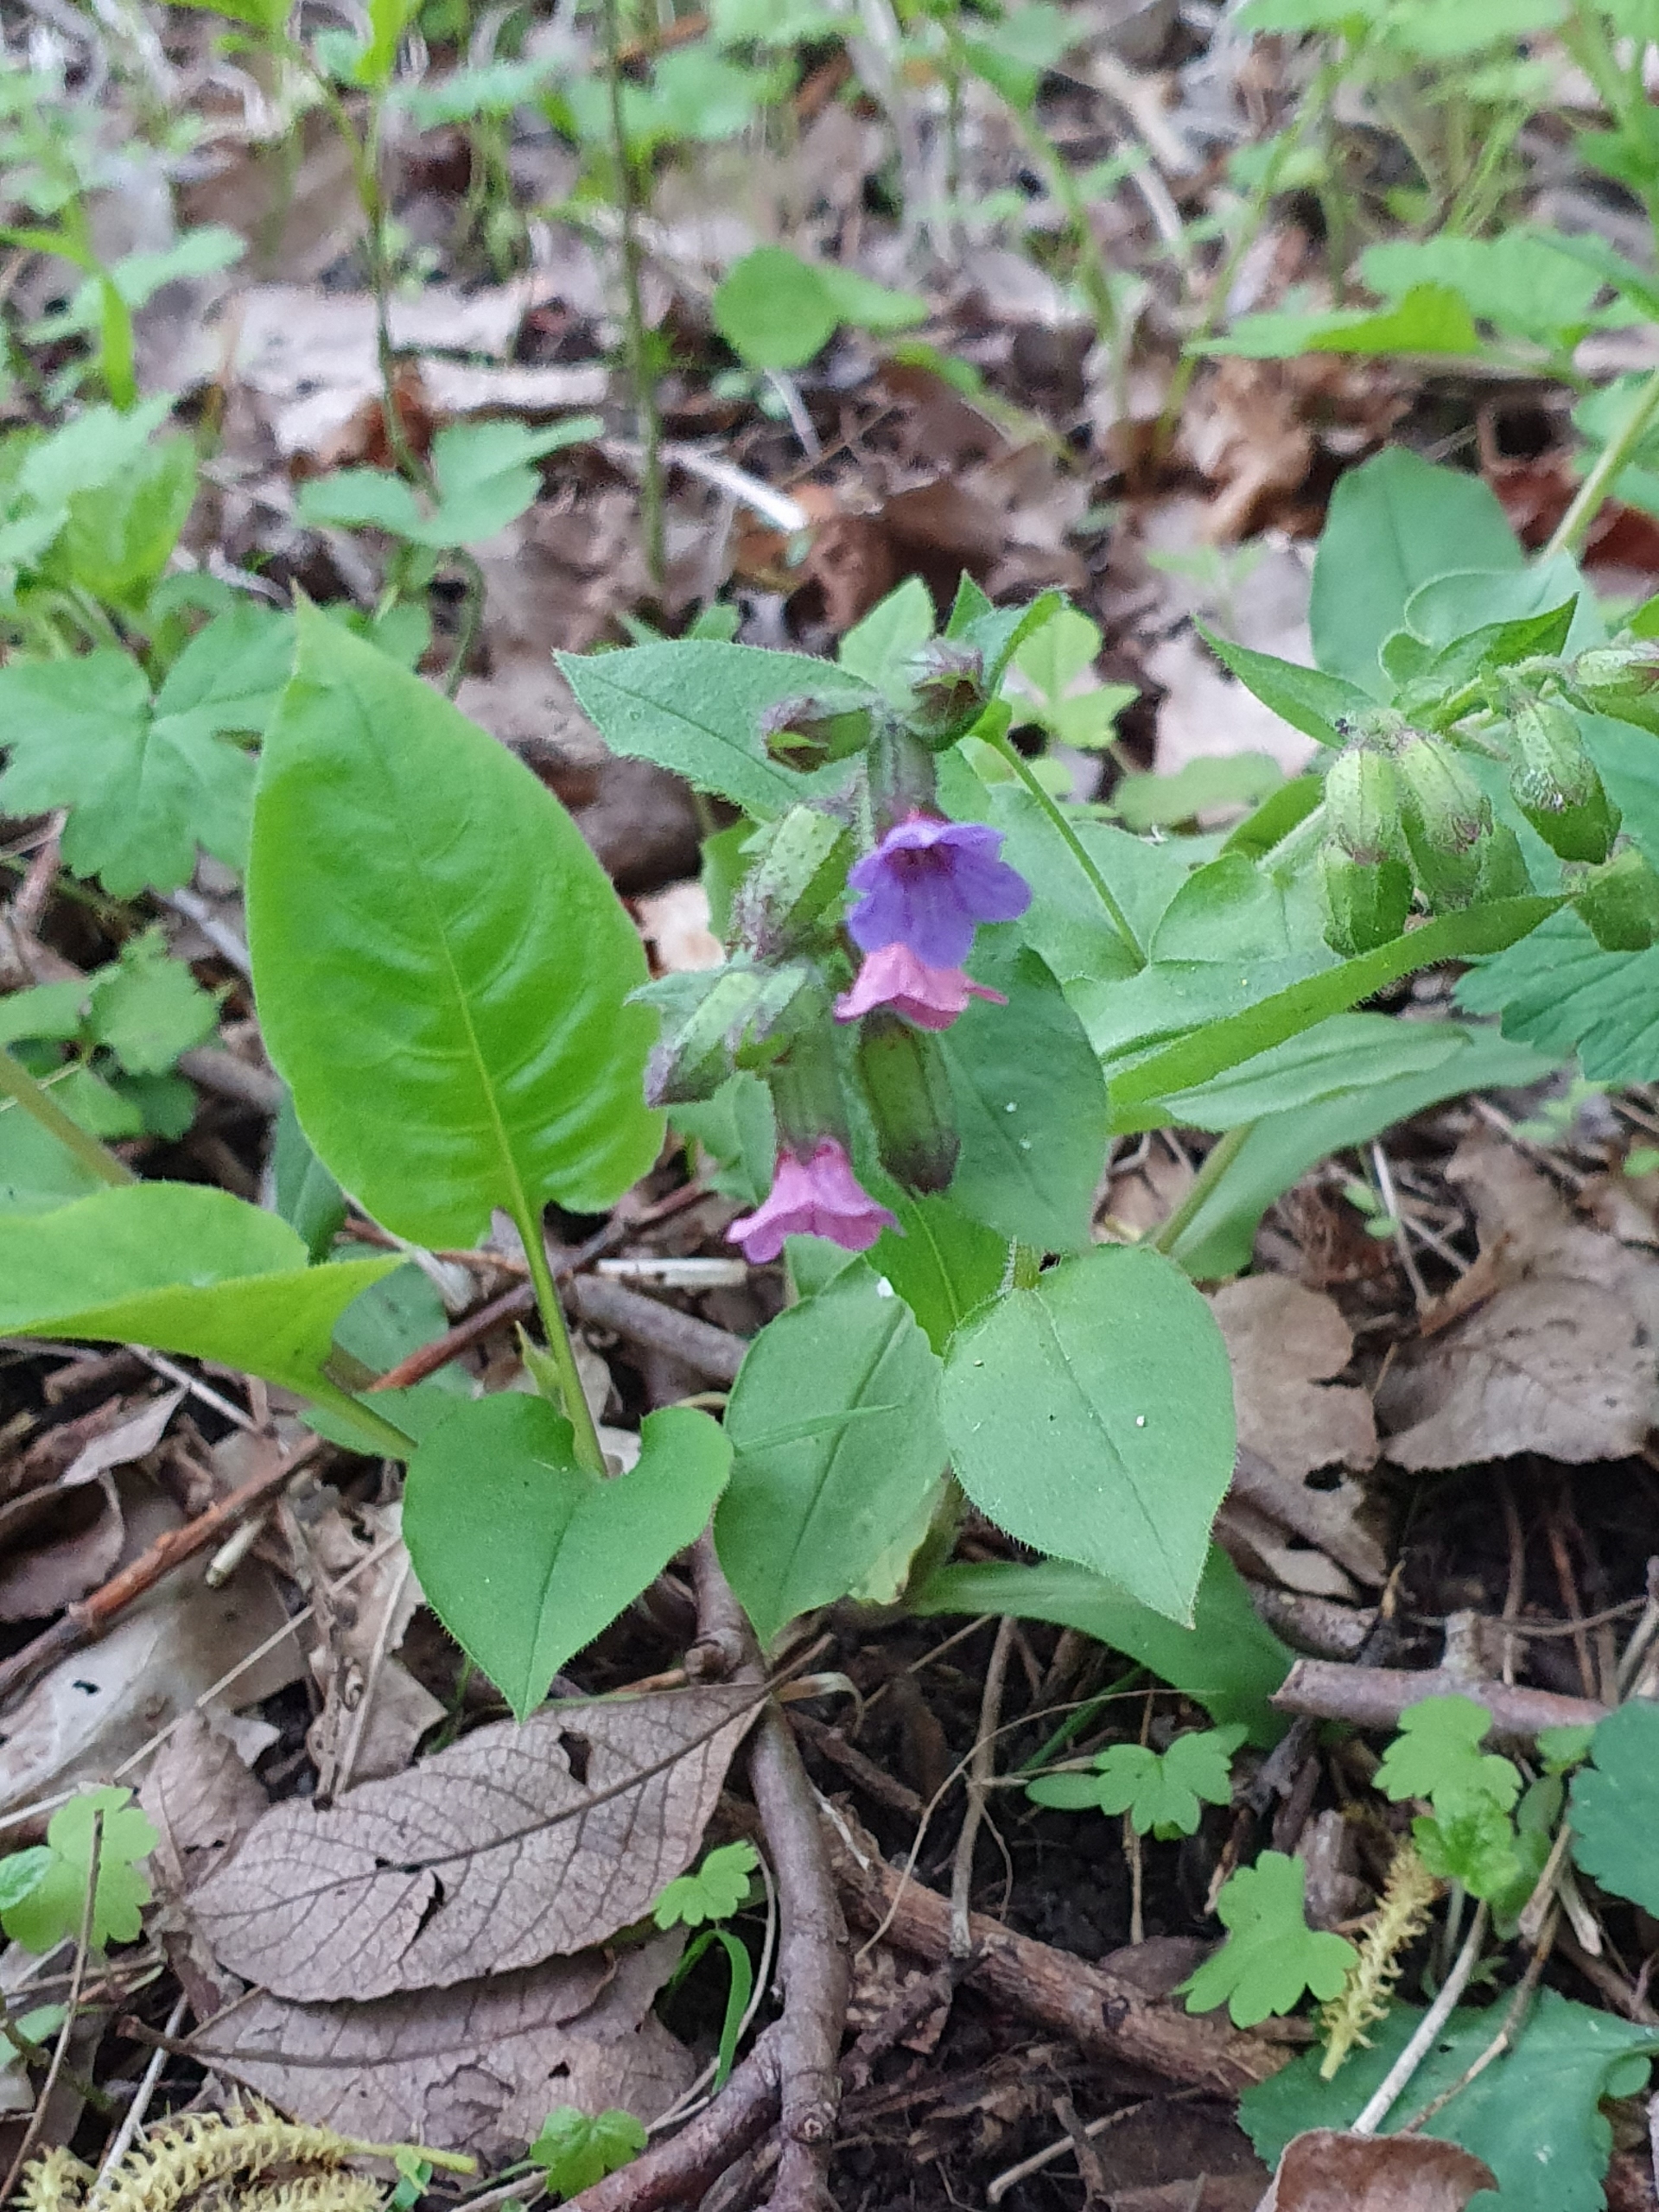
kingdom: Plantae
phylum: Tracheophyta
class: Magnoliopsida
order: Boraginales
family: Boraginaceae
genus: Pulmonaria
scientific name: Pulmonaria obscura
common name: Almindelig lungeurt
